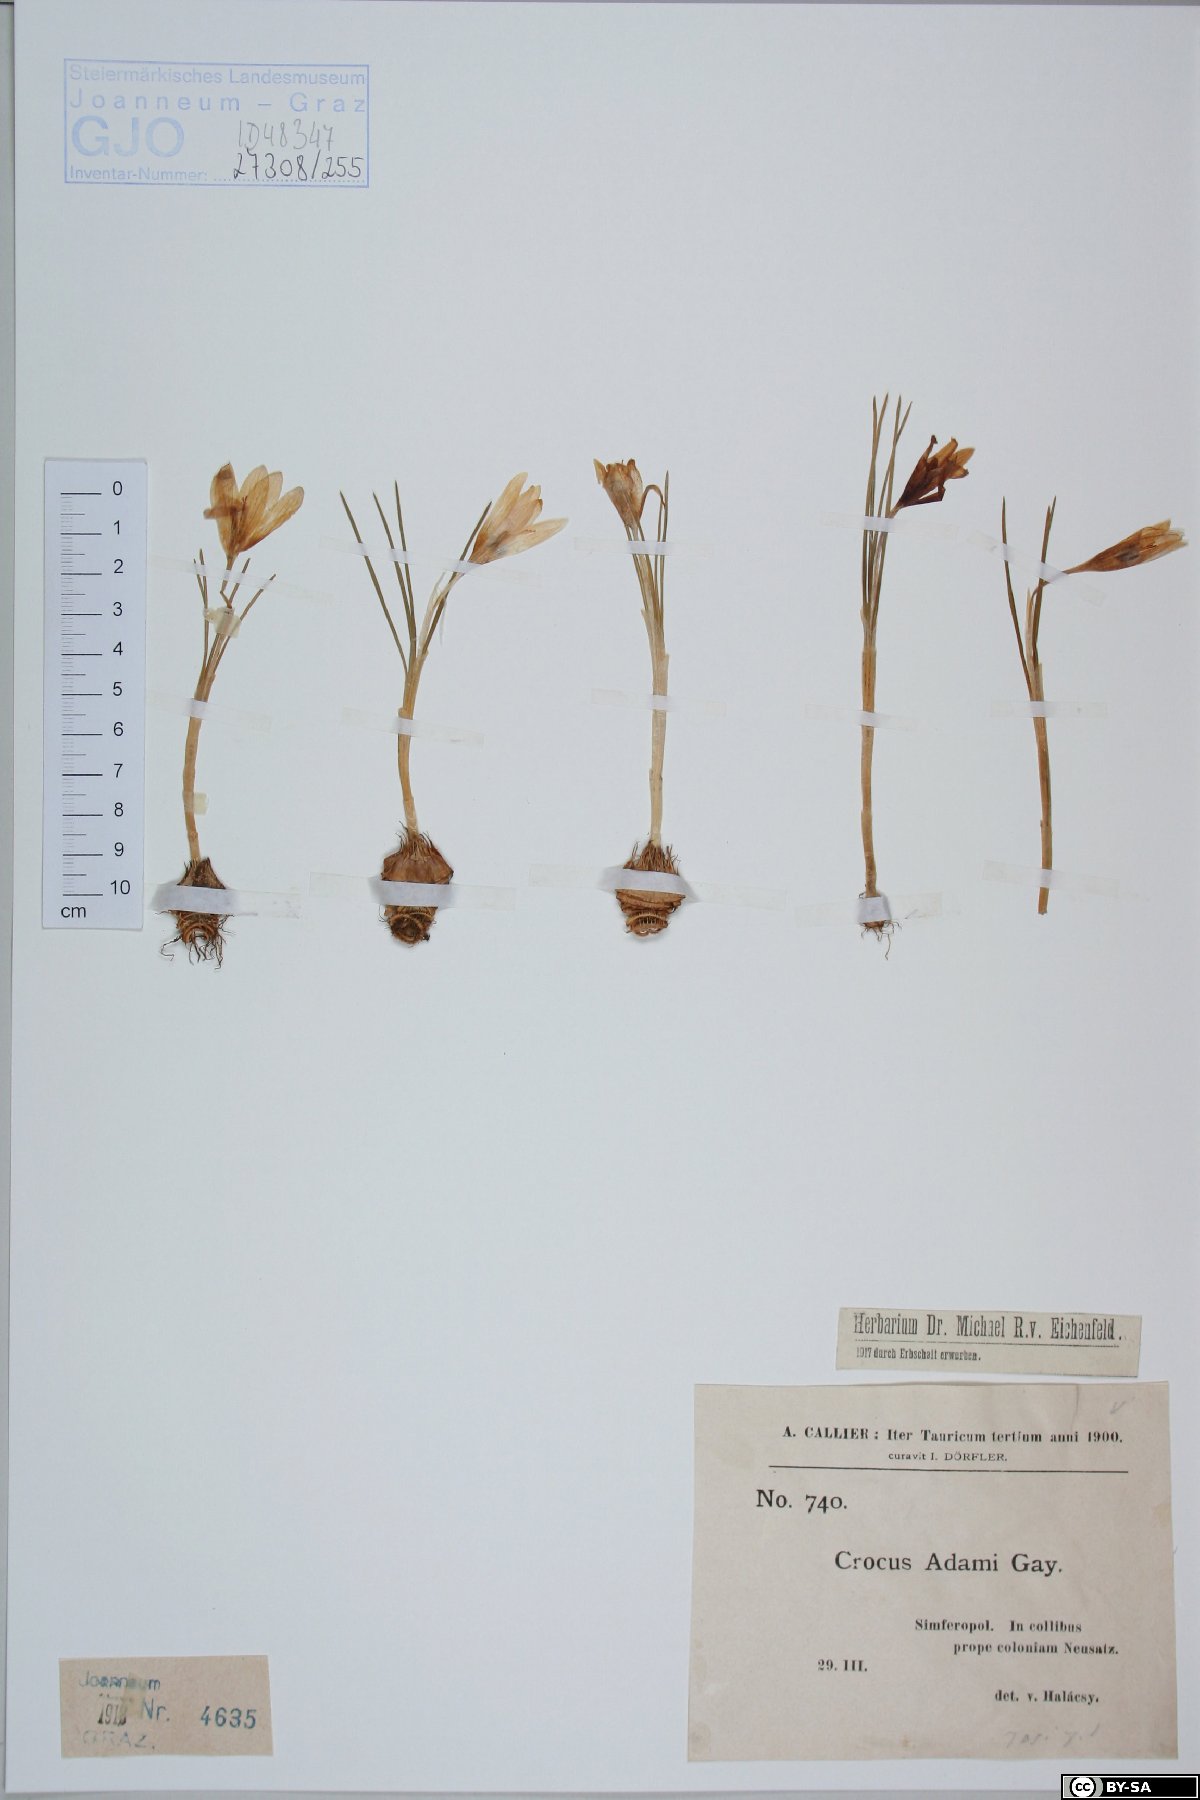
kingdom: Plantae
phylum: Tracheophyta
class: Liliopsida
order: Asparagales
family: Iridaceae
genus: Crocus
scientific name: Crocus adami
